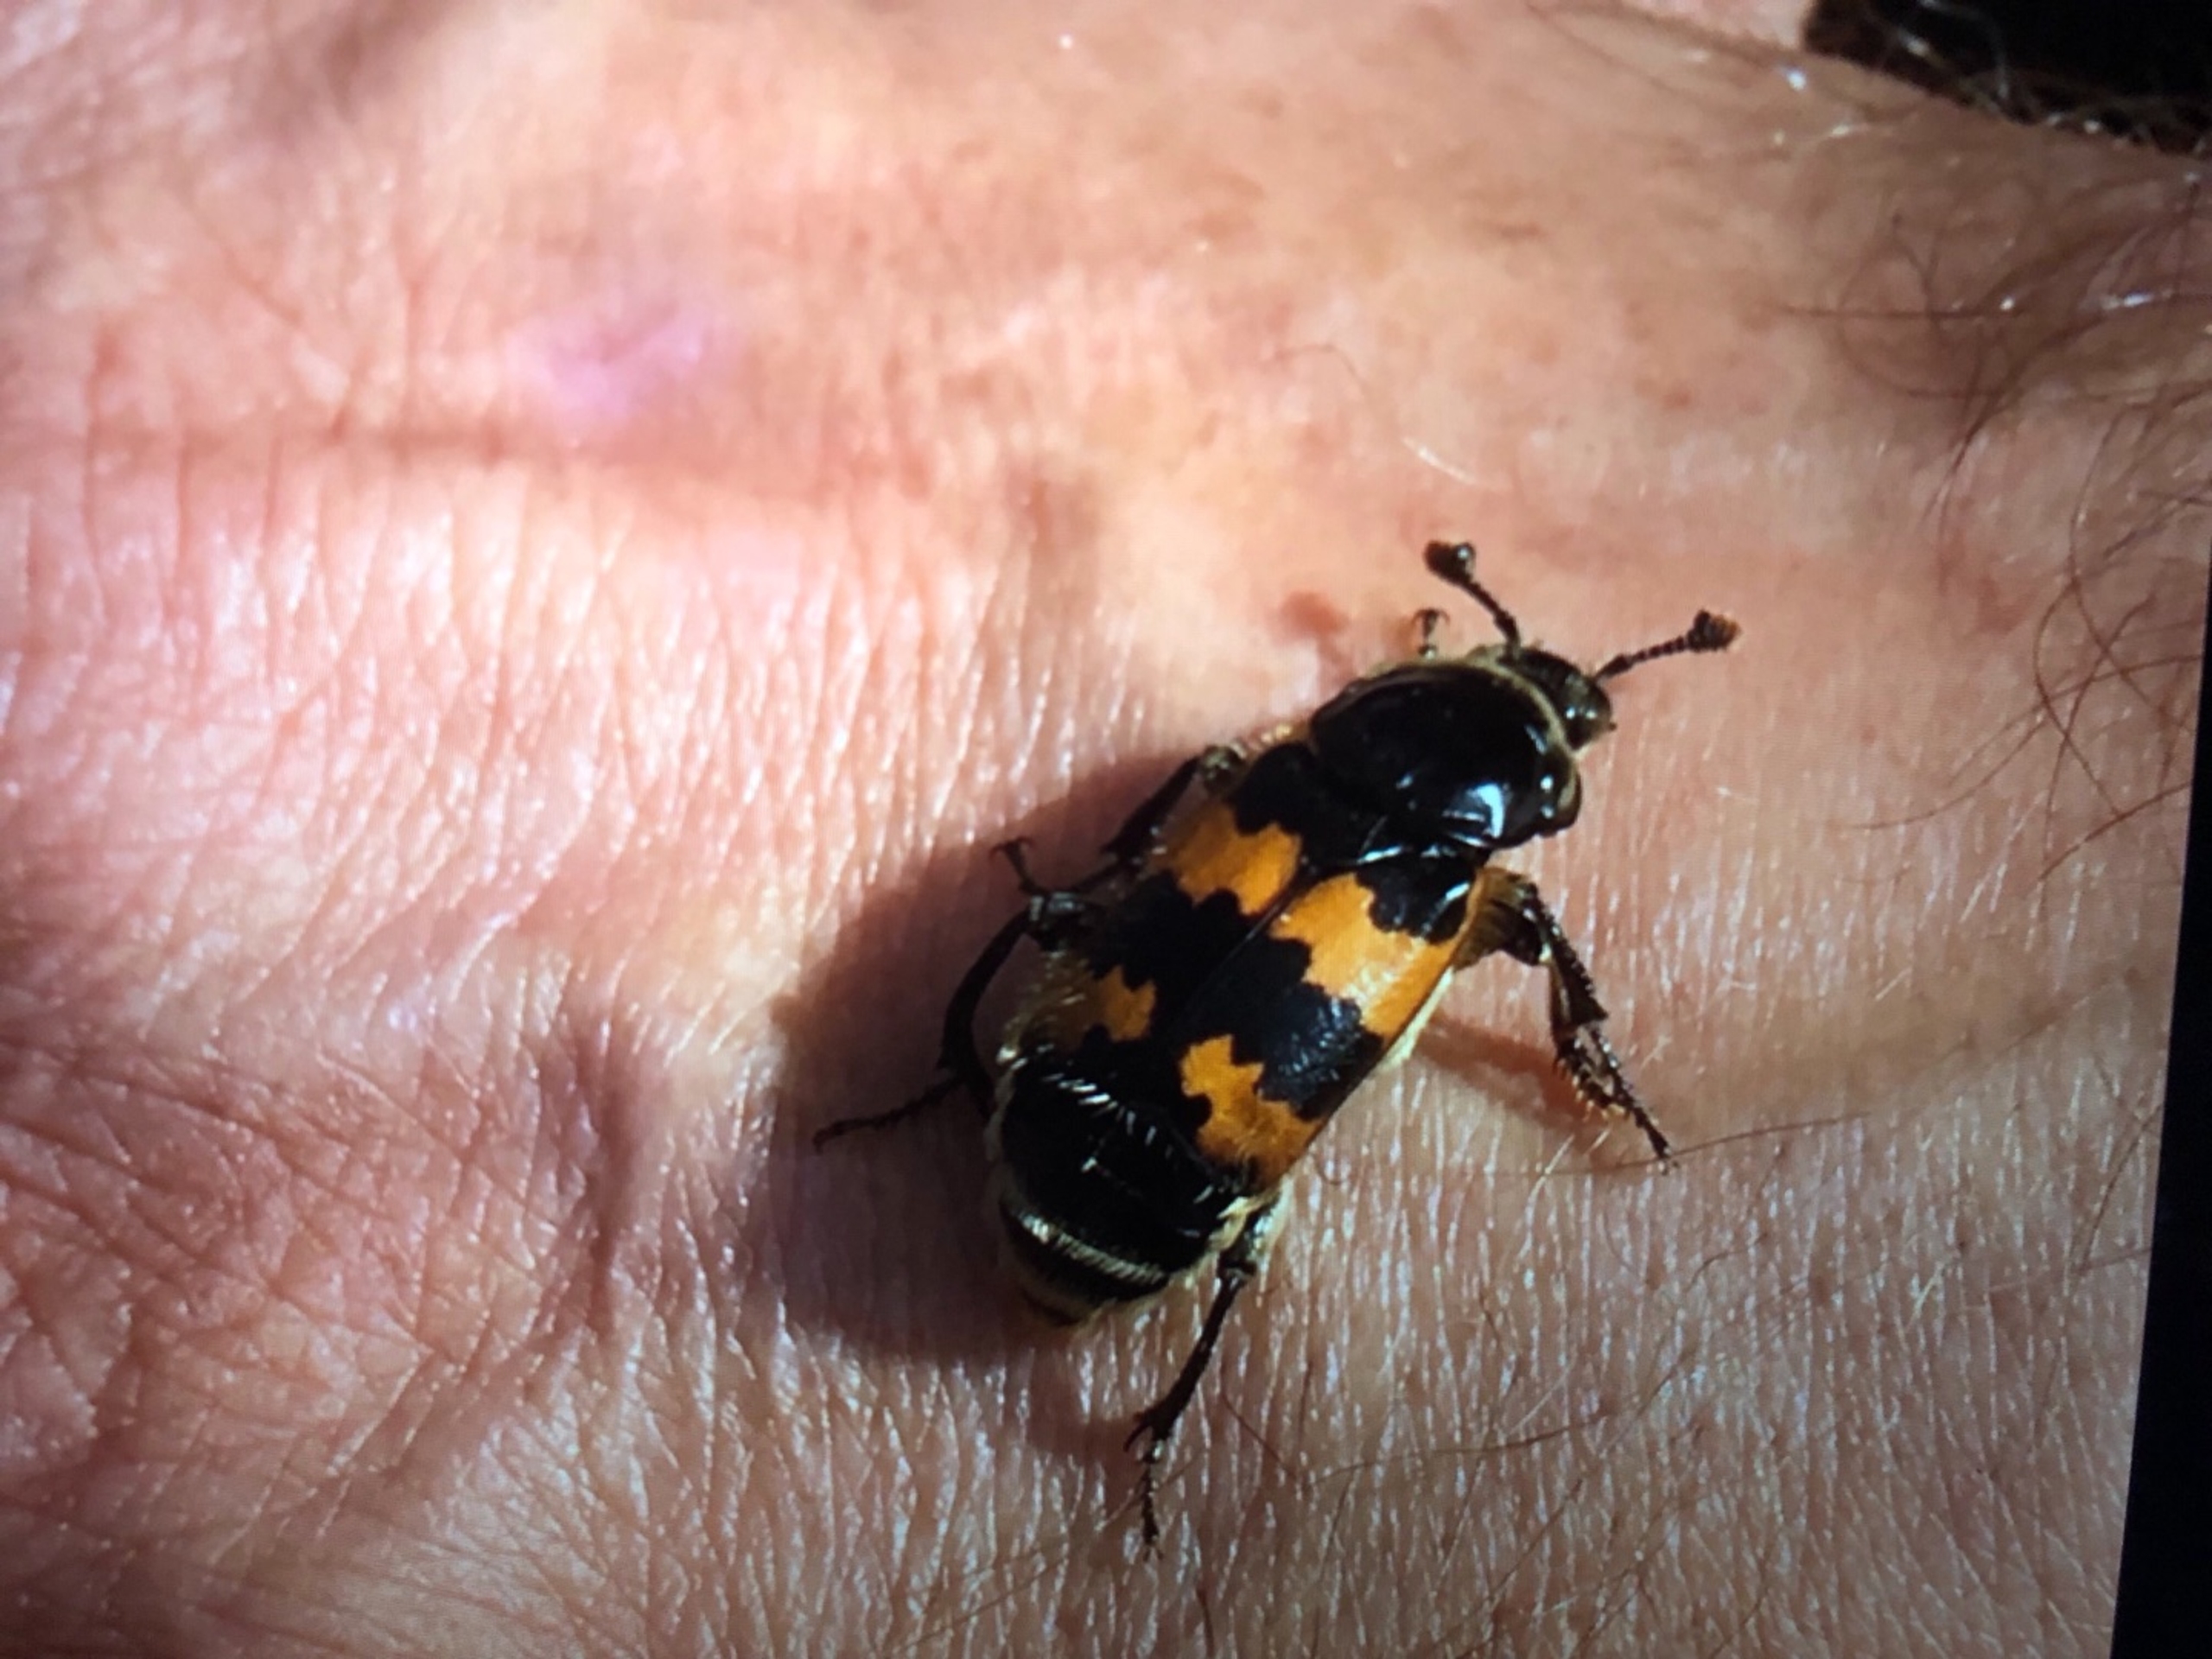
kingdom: Animalia
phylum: Arthropoda
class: Insecta
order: Coleoptera
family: Staphylinidae
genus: Nicrophorus
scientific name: Nicrophorus vespillo
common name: Krumbenet ådselgraver
